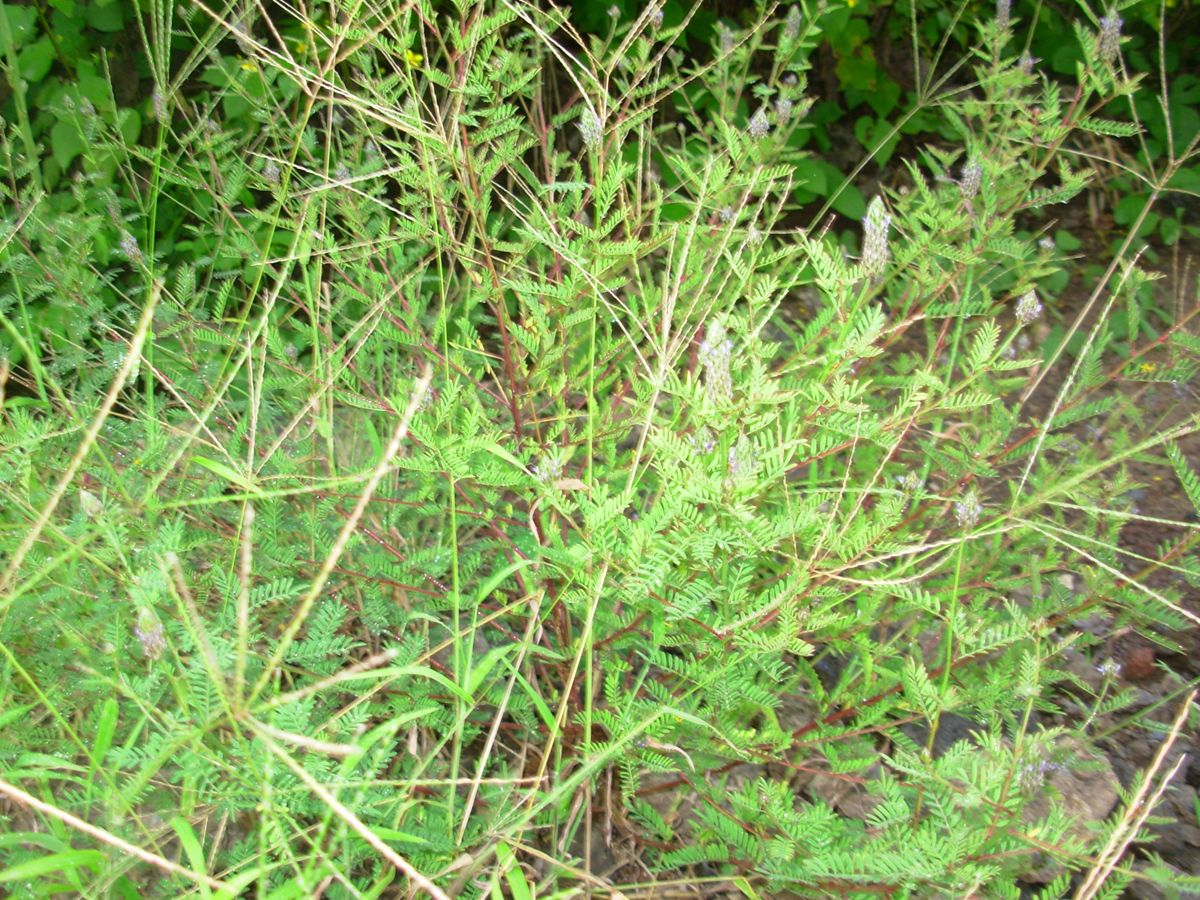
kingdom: Plantae
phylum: Tracheophyta
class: Magnoliopsida
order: Fabales
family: Fabaceae
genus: Dalea
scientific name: Dalea cliffortiana
